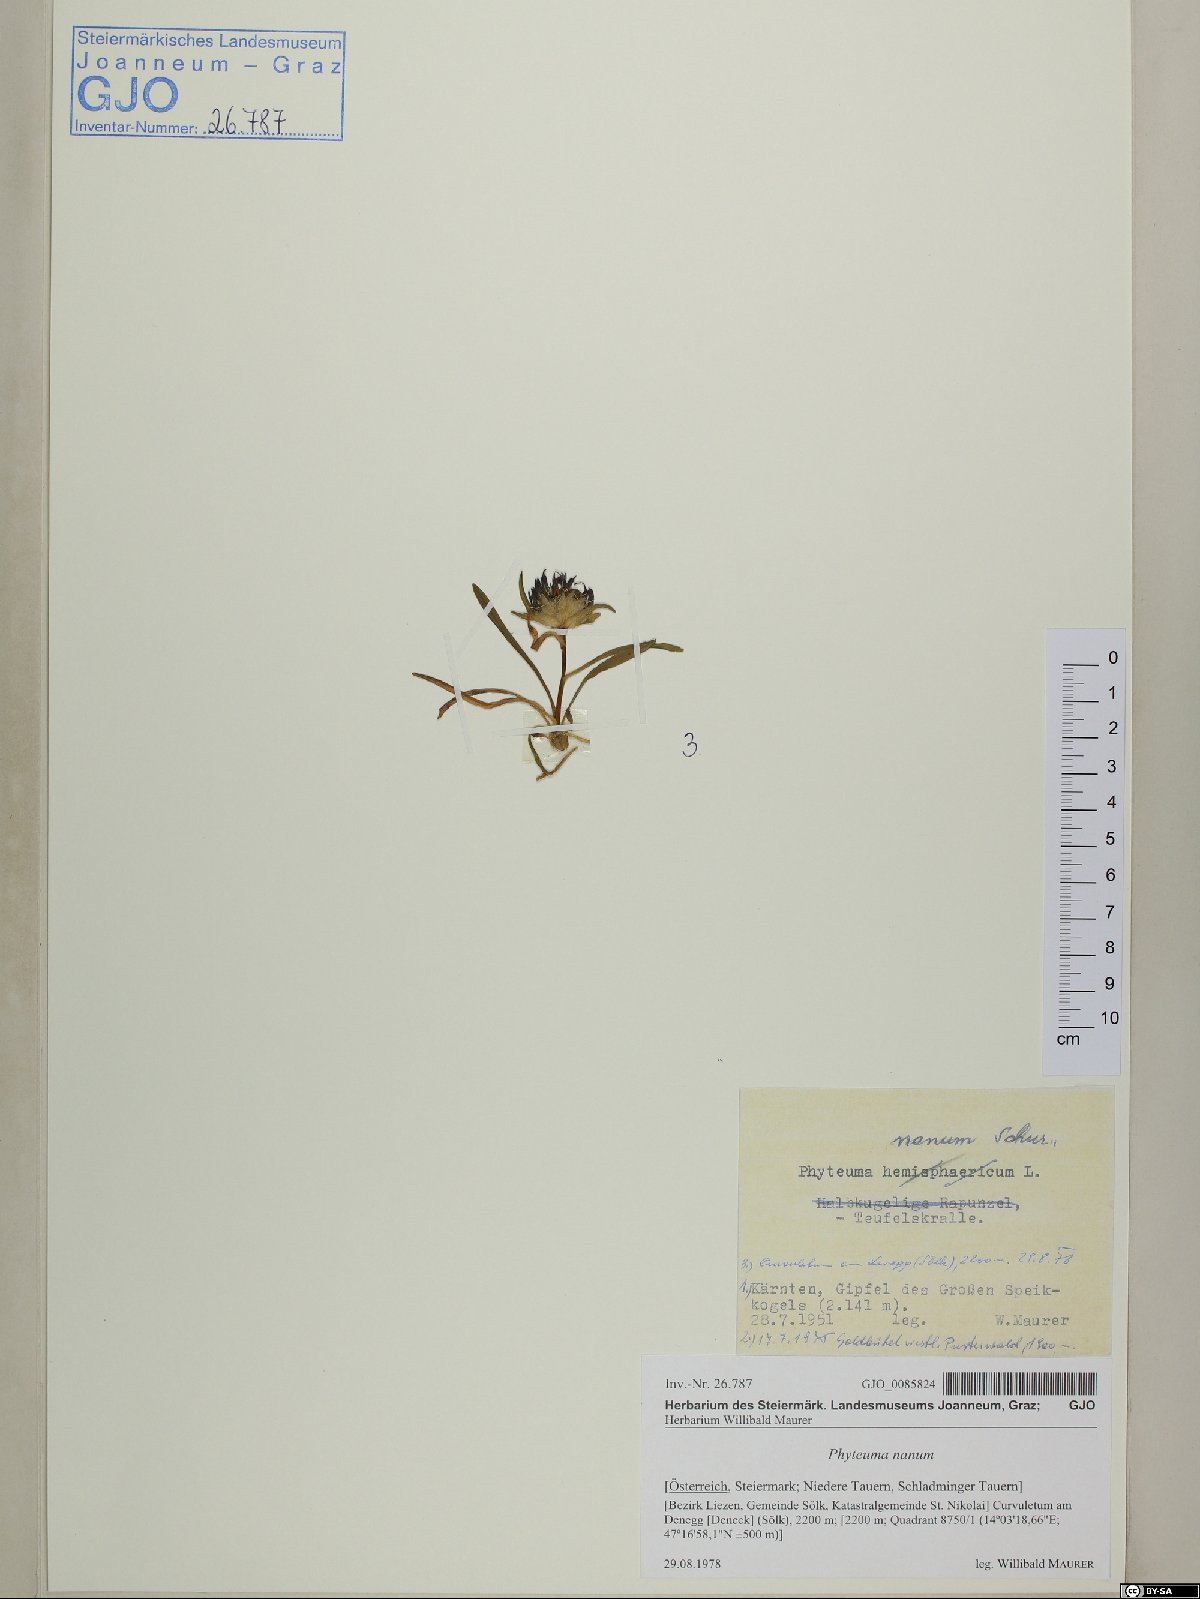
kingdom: Plantae
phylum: Tracheophyta
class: Magnoliopsida
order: Asterales
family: Campanulaceae
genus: Phyteuma
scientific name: Phyteuma globulariifolium
